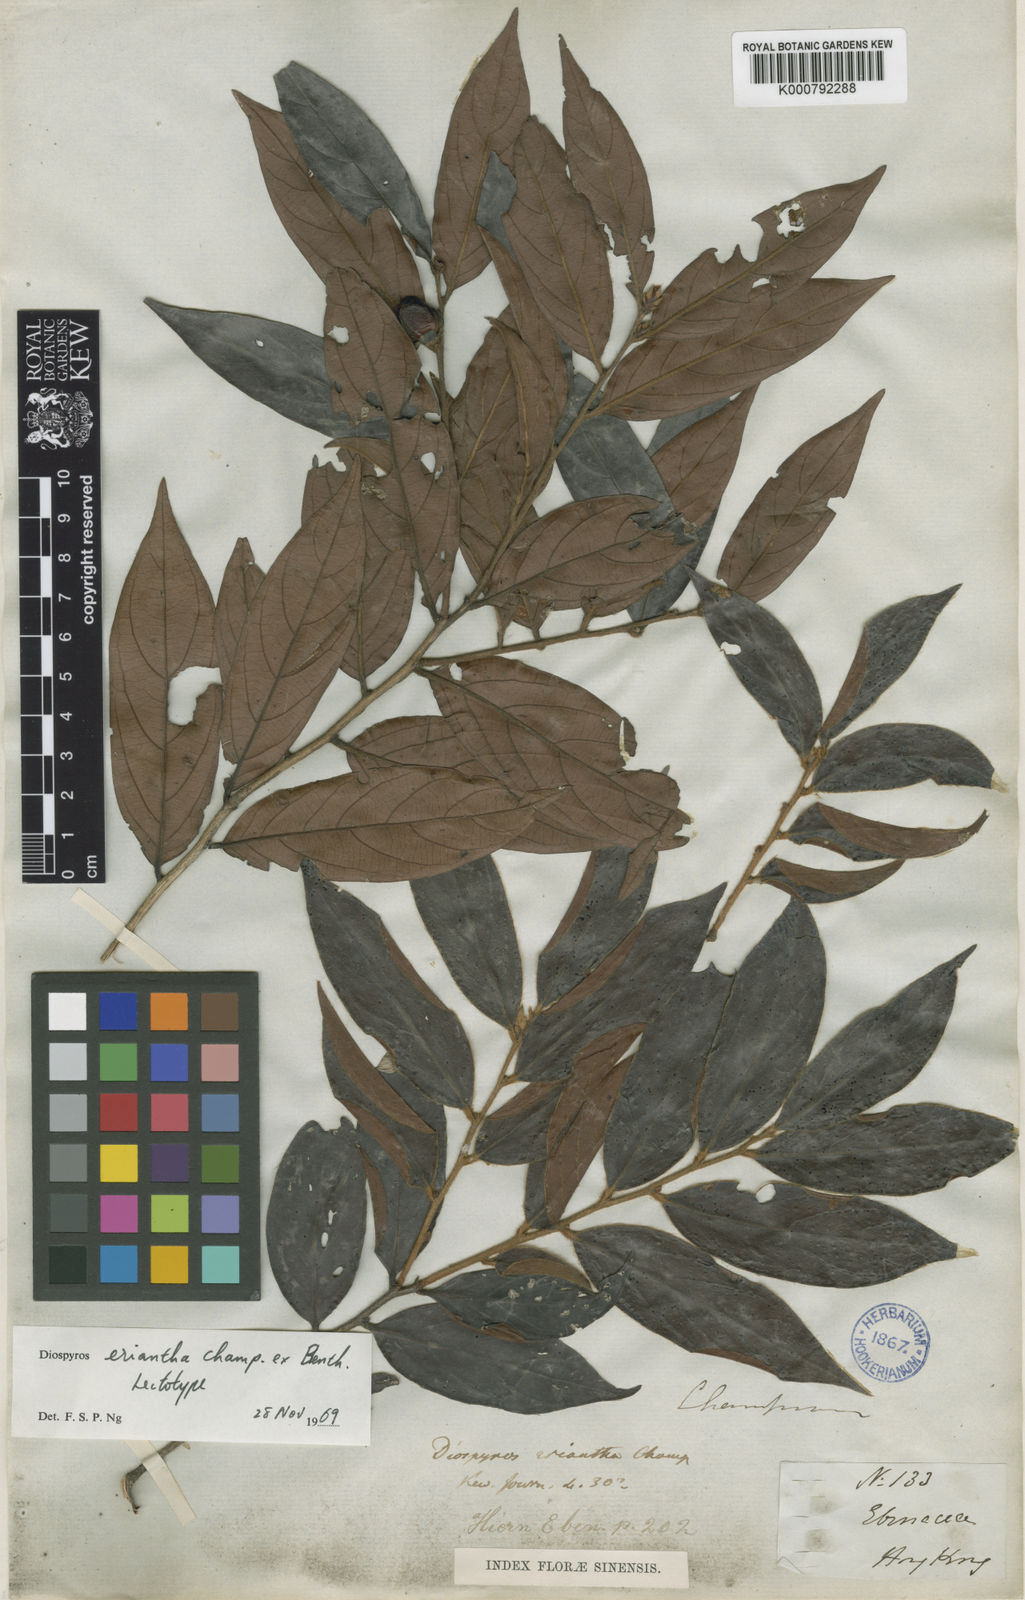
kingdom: Plantae
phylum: Tracheophyta
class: Magnoliopsida
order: Ericales
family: Ebenaceae
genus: Diospyros
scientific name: Diospyros eriantha
